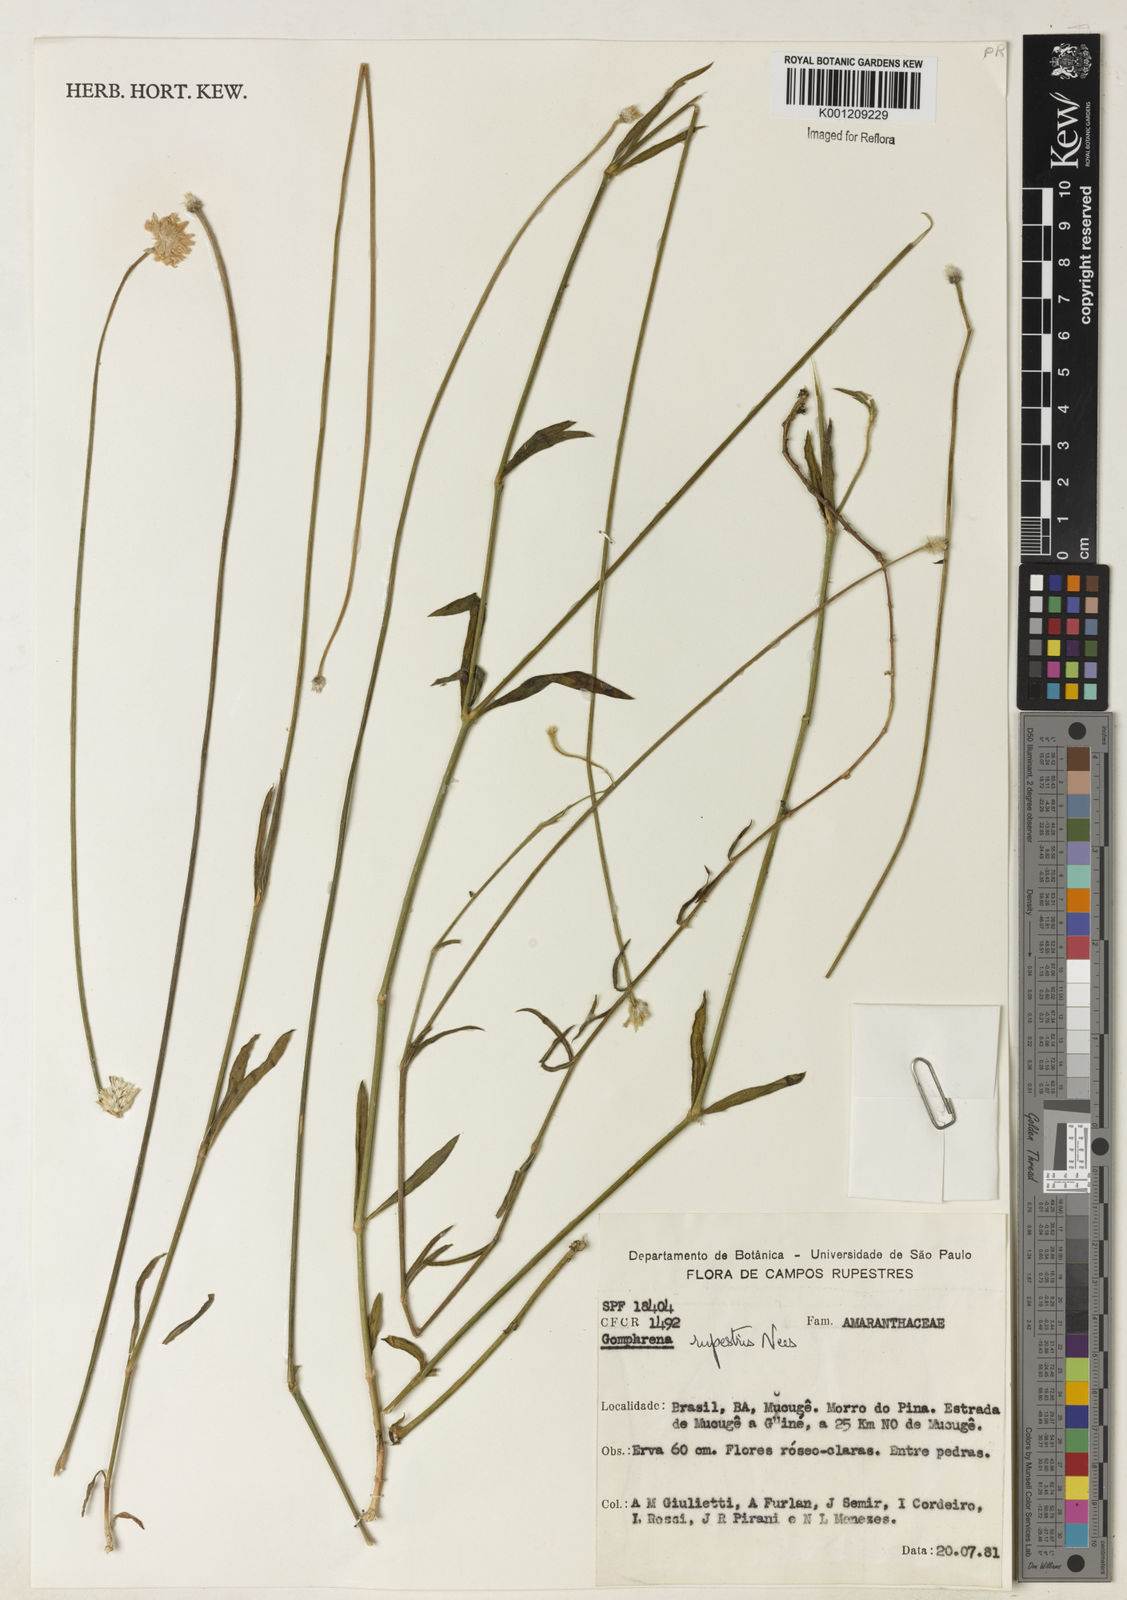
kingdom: Plantae
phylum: Tracheophyta
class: Magnoliopsida
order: Caryophyllales
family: Amaranthaceae
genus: Gomphrena
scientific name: Gomphrena rupestris
